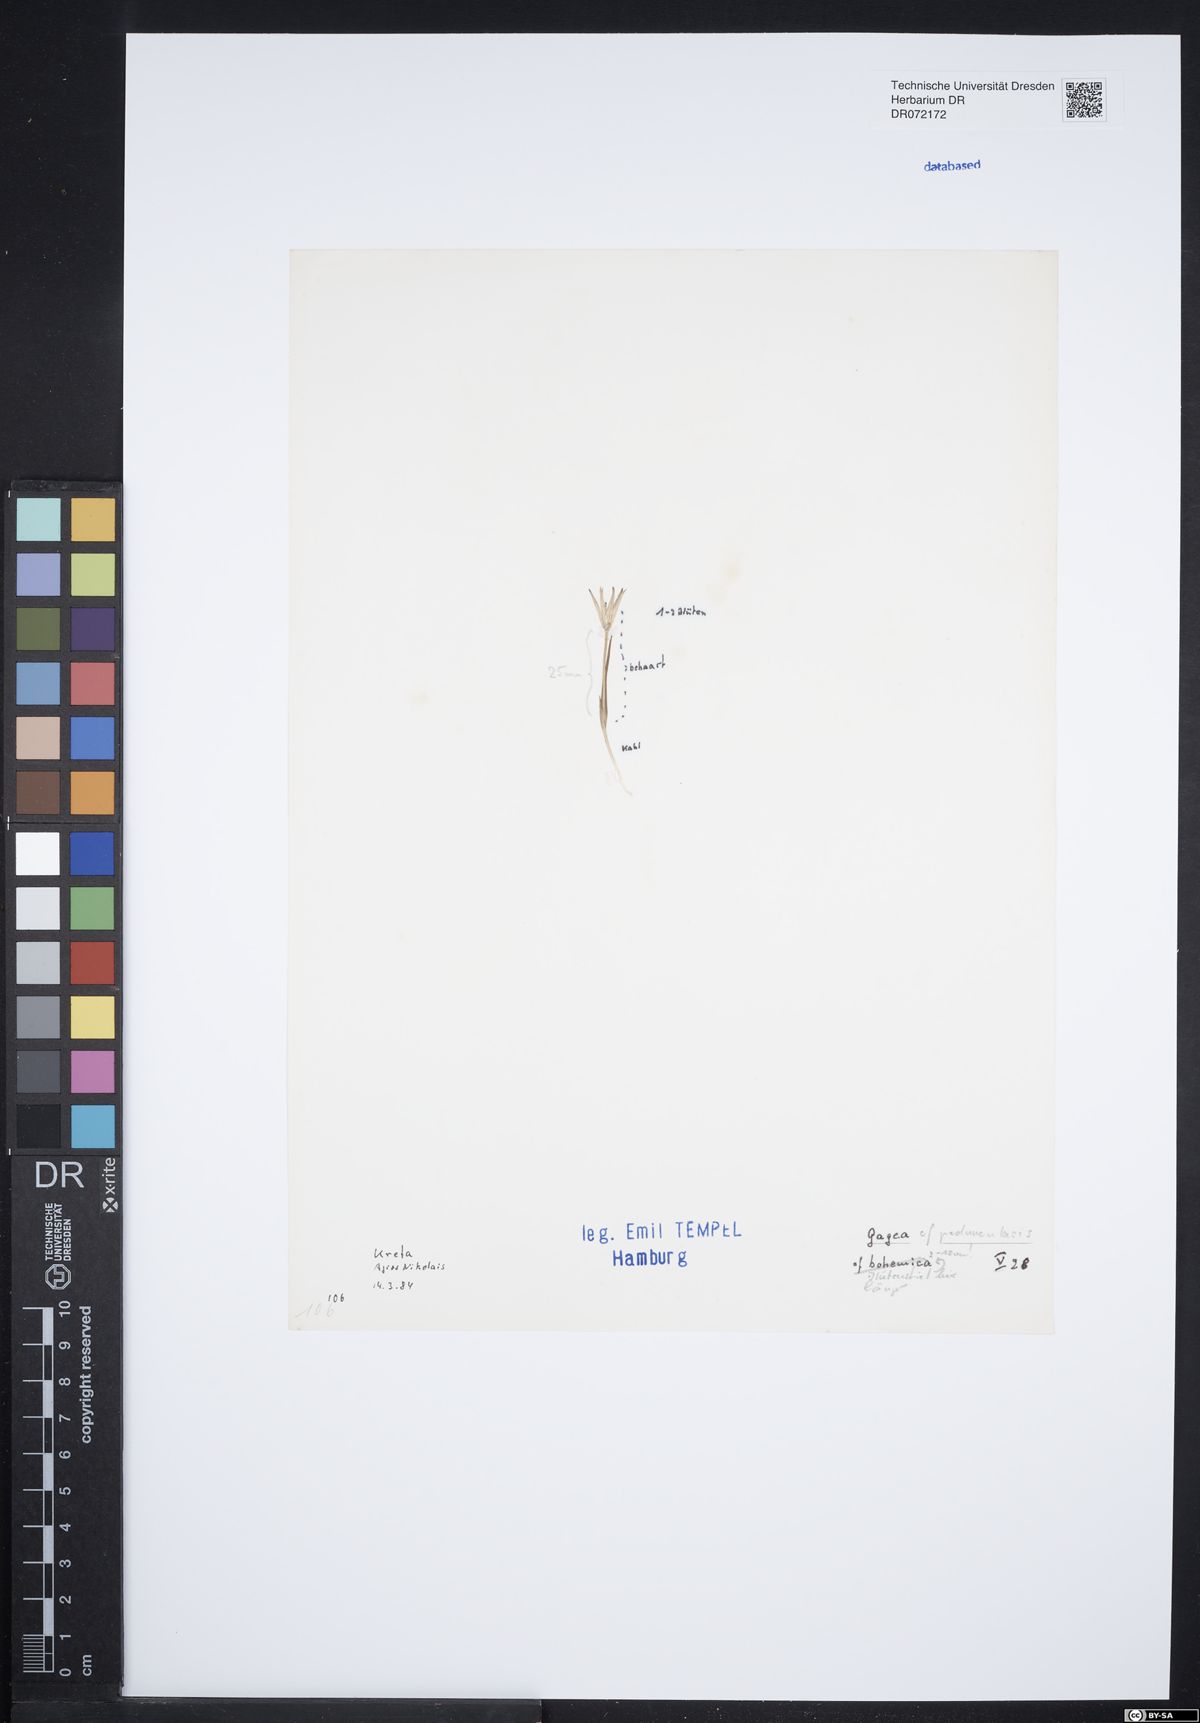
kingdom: Plantae
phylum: Tracheophyta
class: Liliopsida
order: Liliales
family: Liliaceae
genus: Gagea
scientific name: Gagea peduncularis
